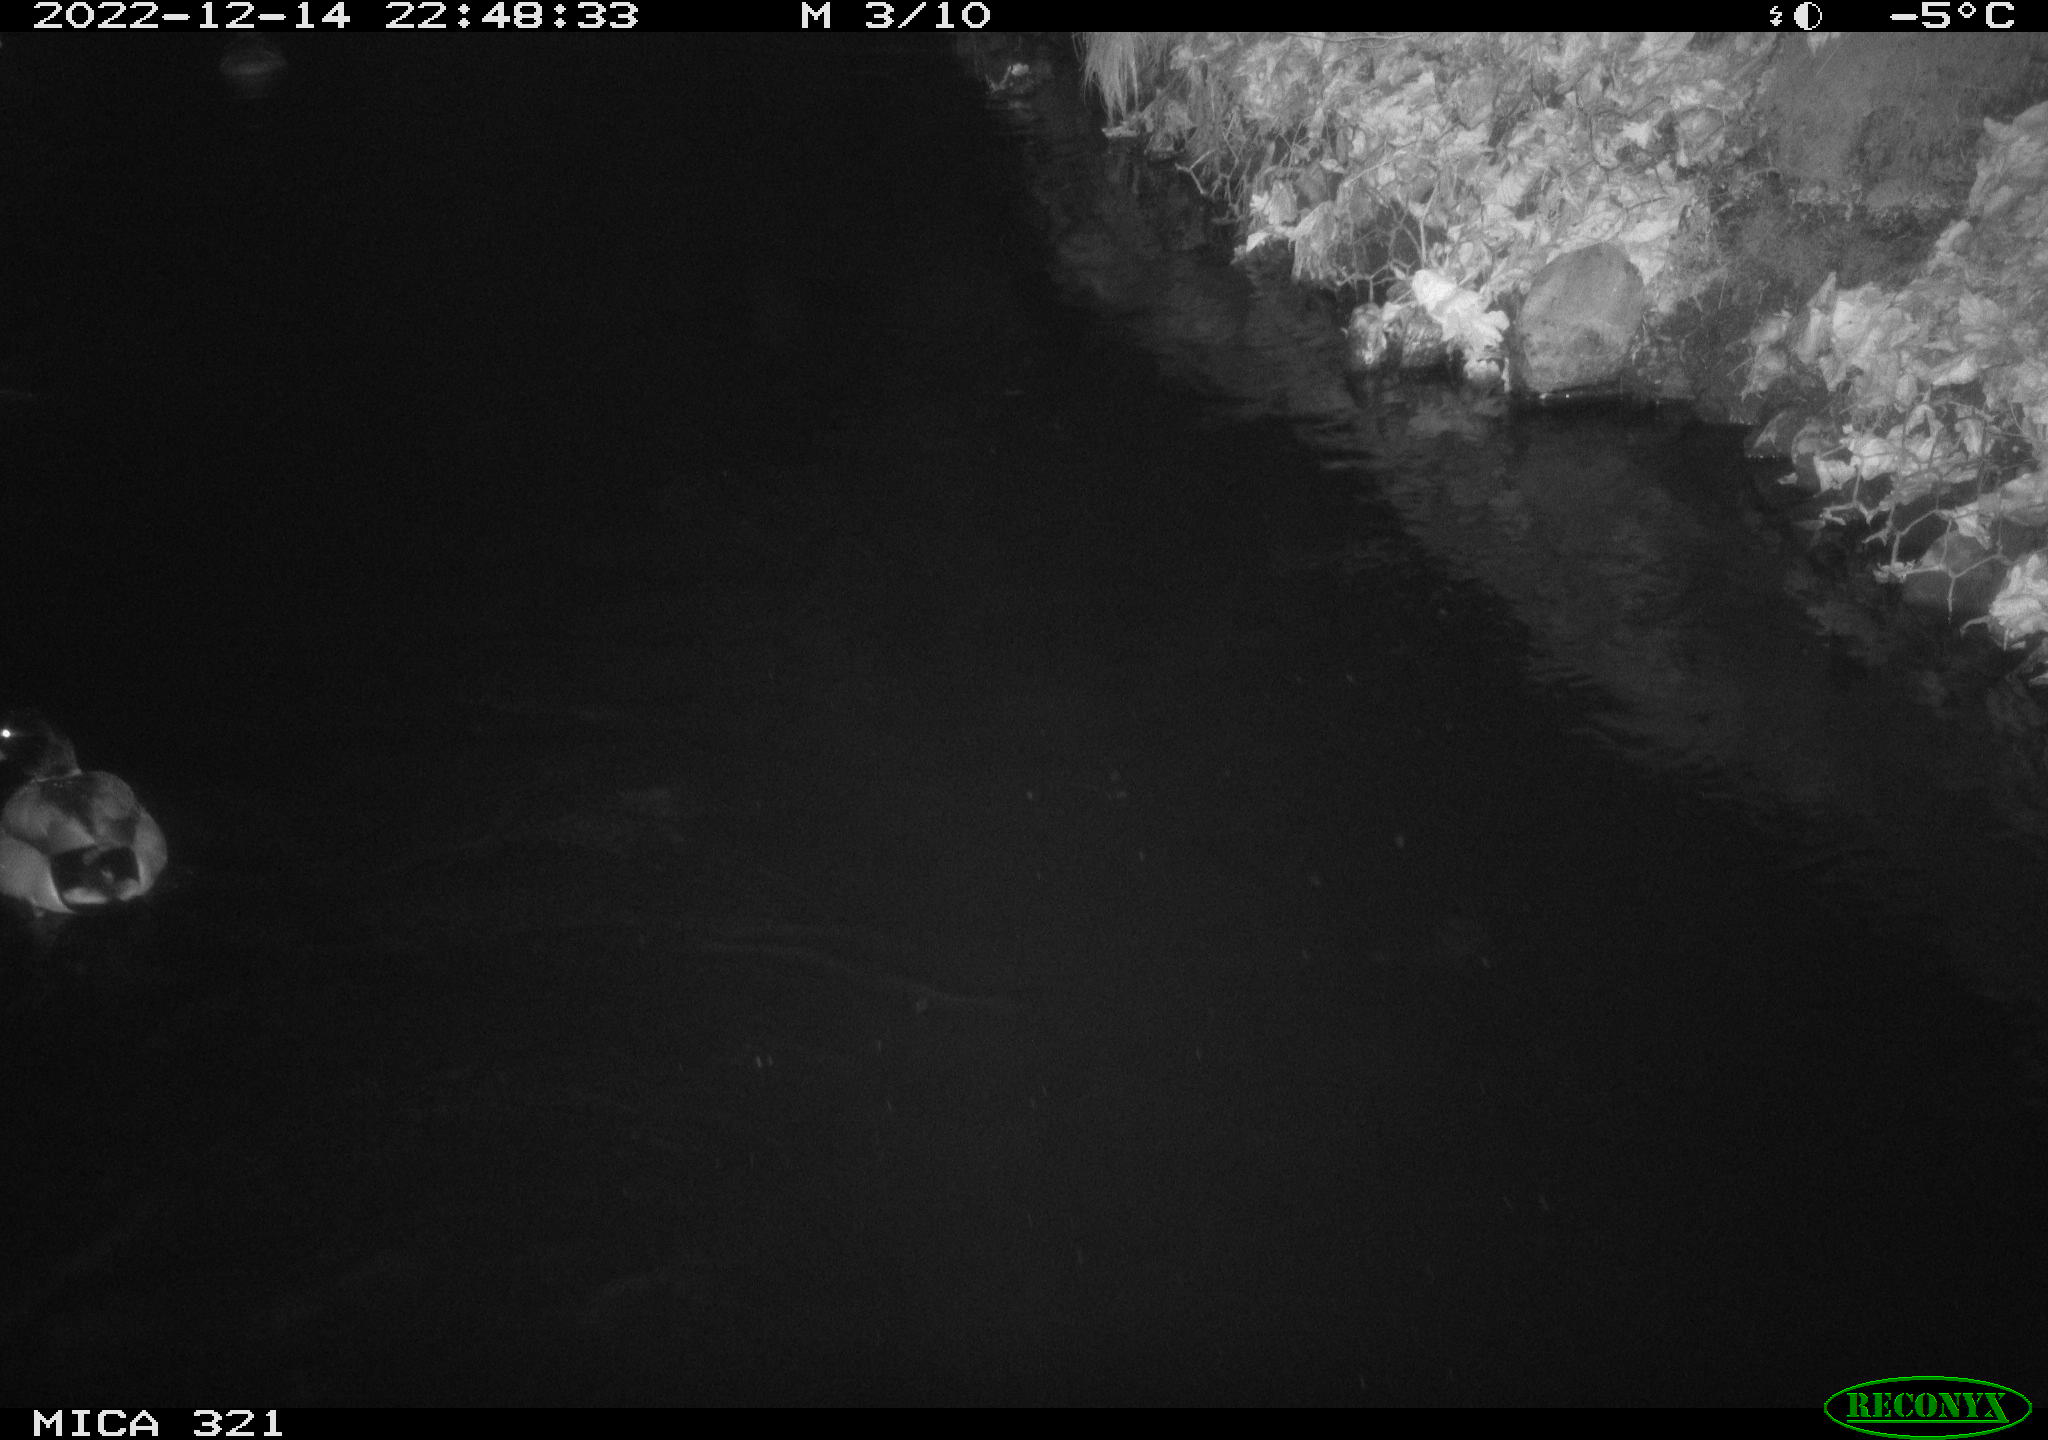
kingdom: Animalia
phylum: Chordata
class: Aves
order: Anseriformes
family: Anatidae
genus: Anas
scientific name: Anas
